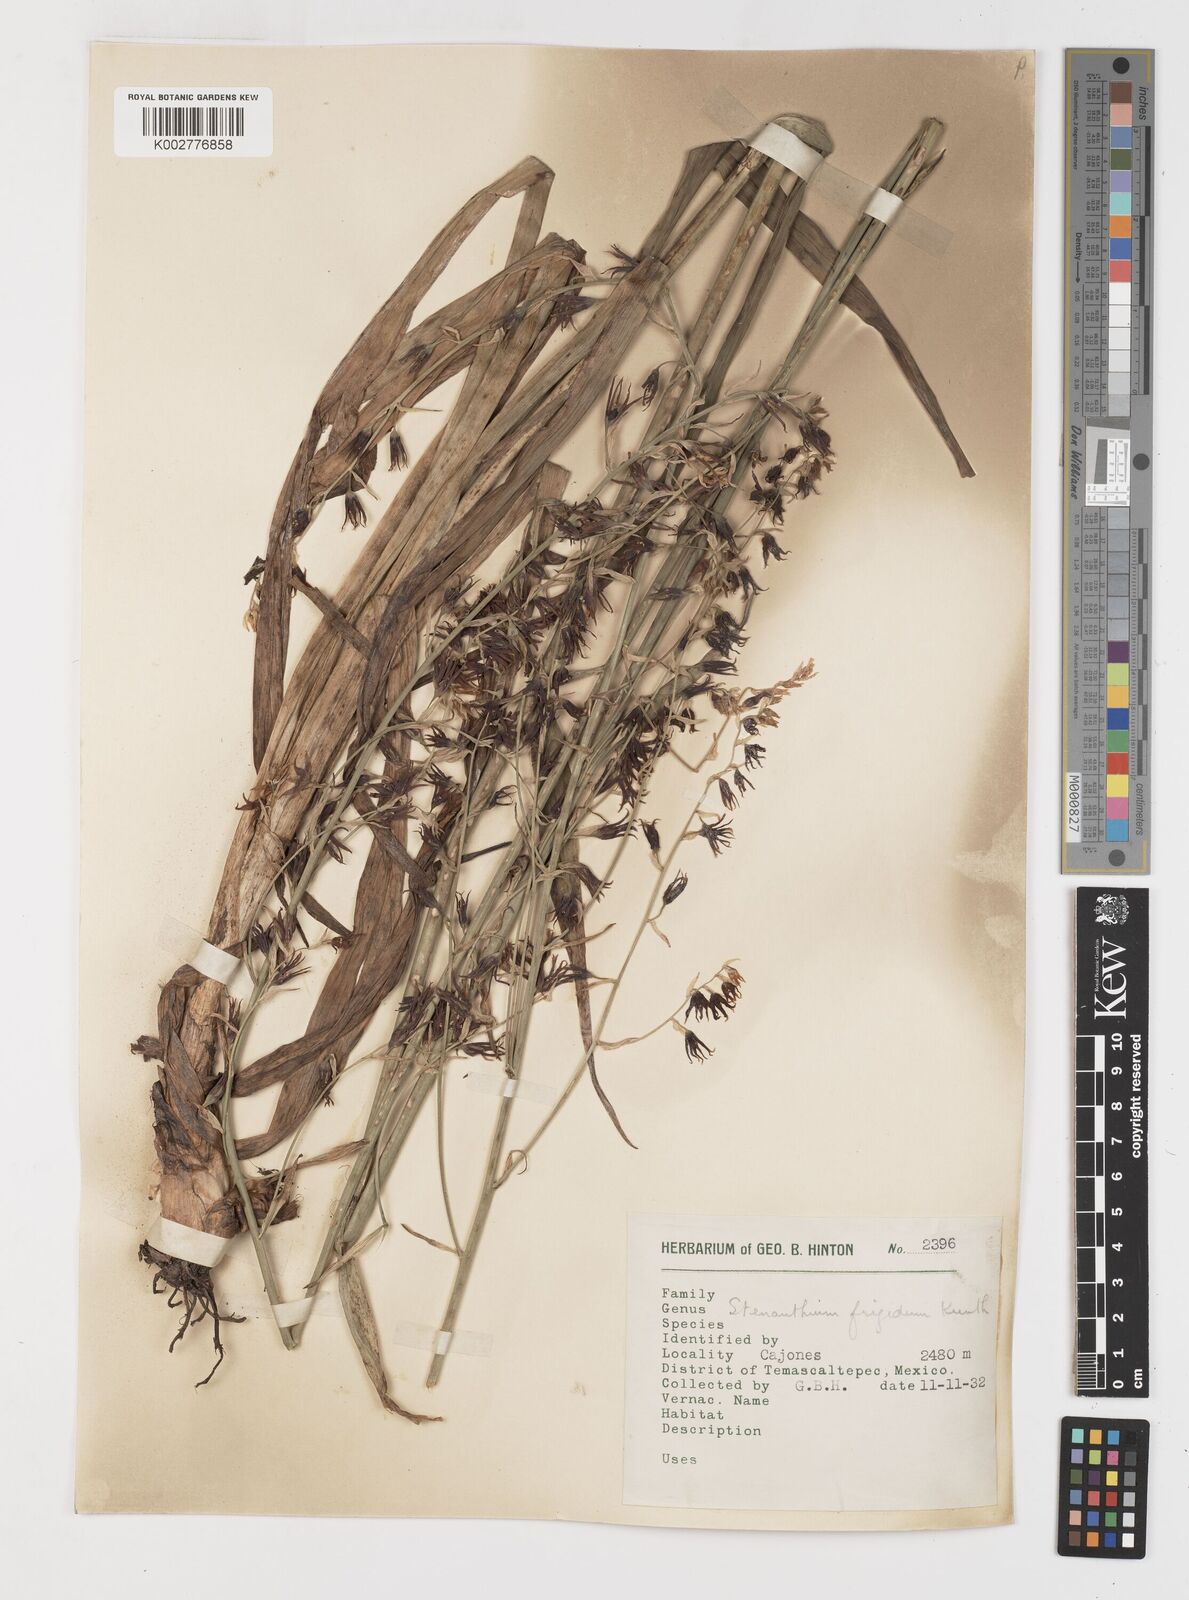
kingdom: Plantae
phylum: Tracheophyta
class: Liliopsida
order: Liliales
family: Melanthiaceae
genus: Anticlea
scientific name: Anticlea frigida
